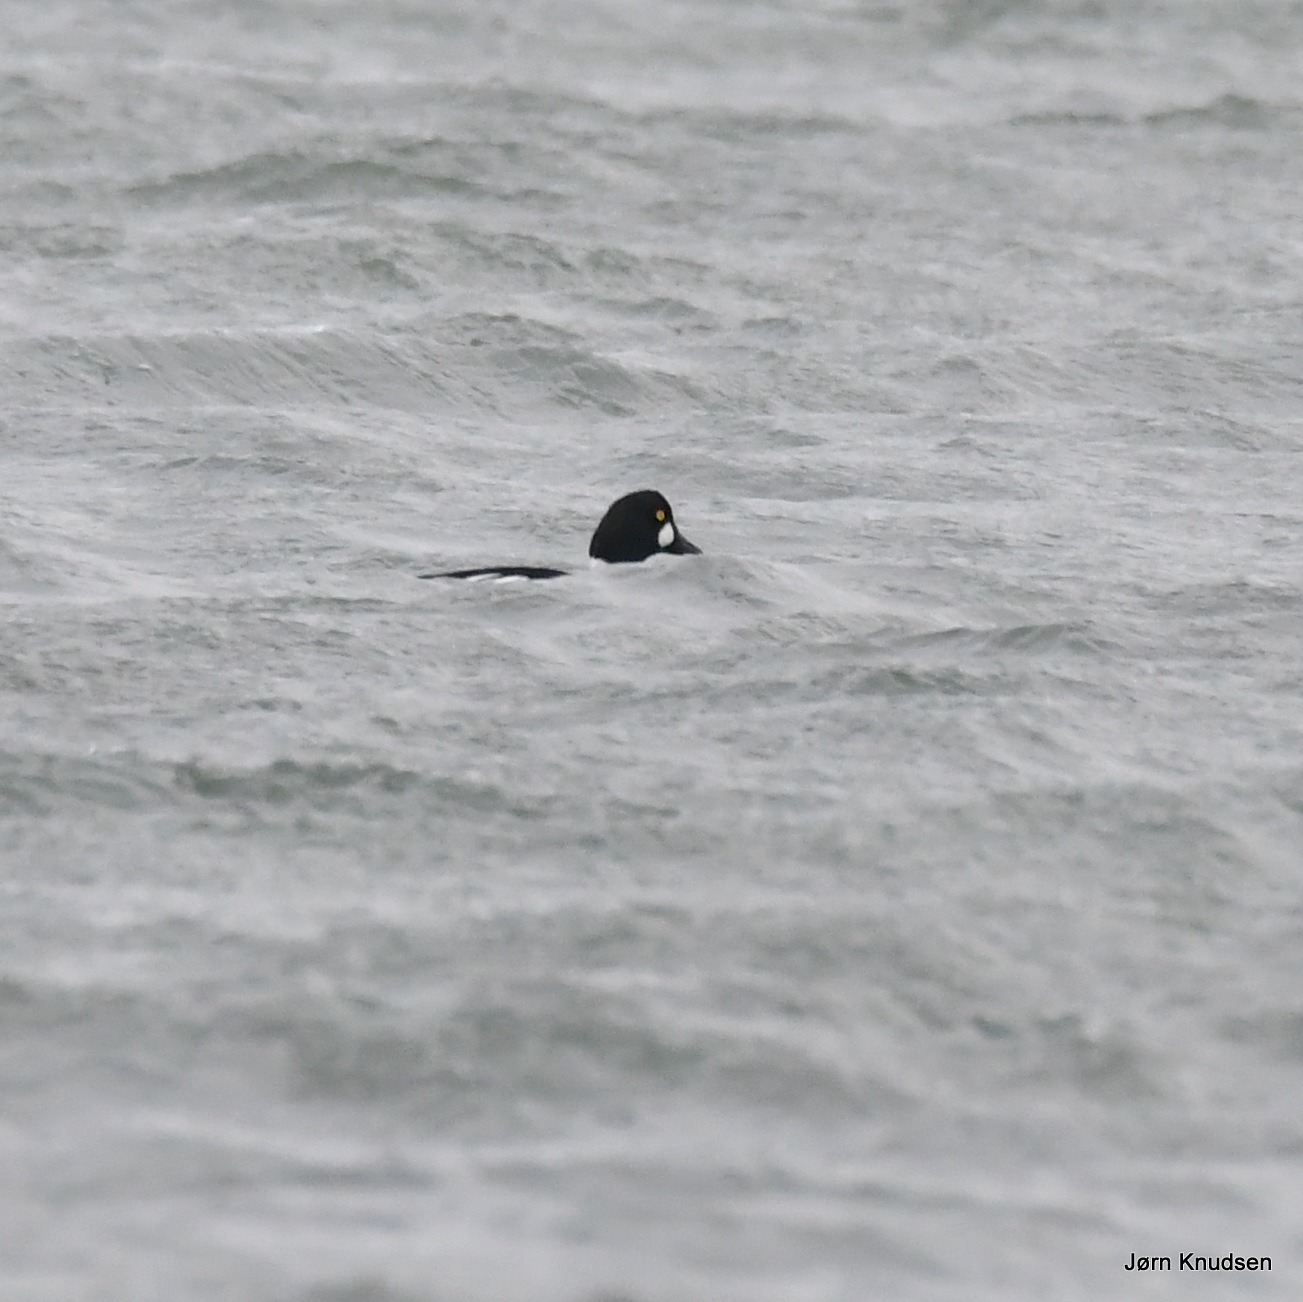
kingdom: Animalia
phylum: Chordata
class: Aves
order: Anseriformes
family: Anatidae
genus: Bucephala
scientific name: Bucephala clangula
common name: Hvinand
